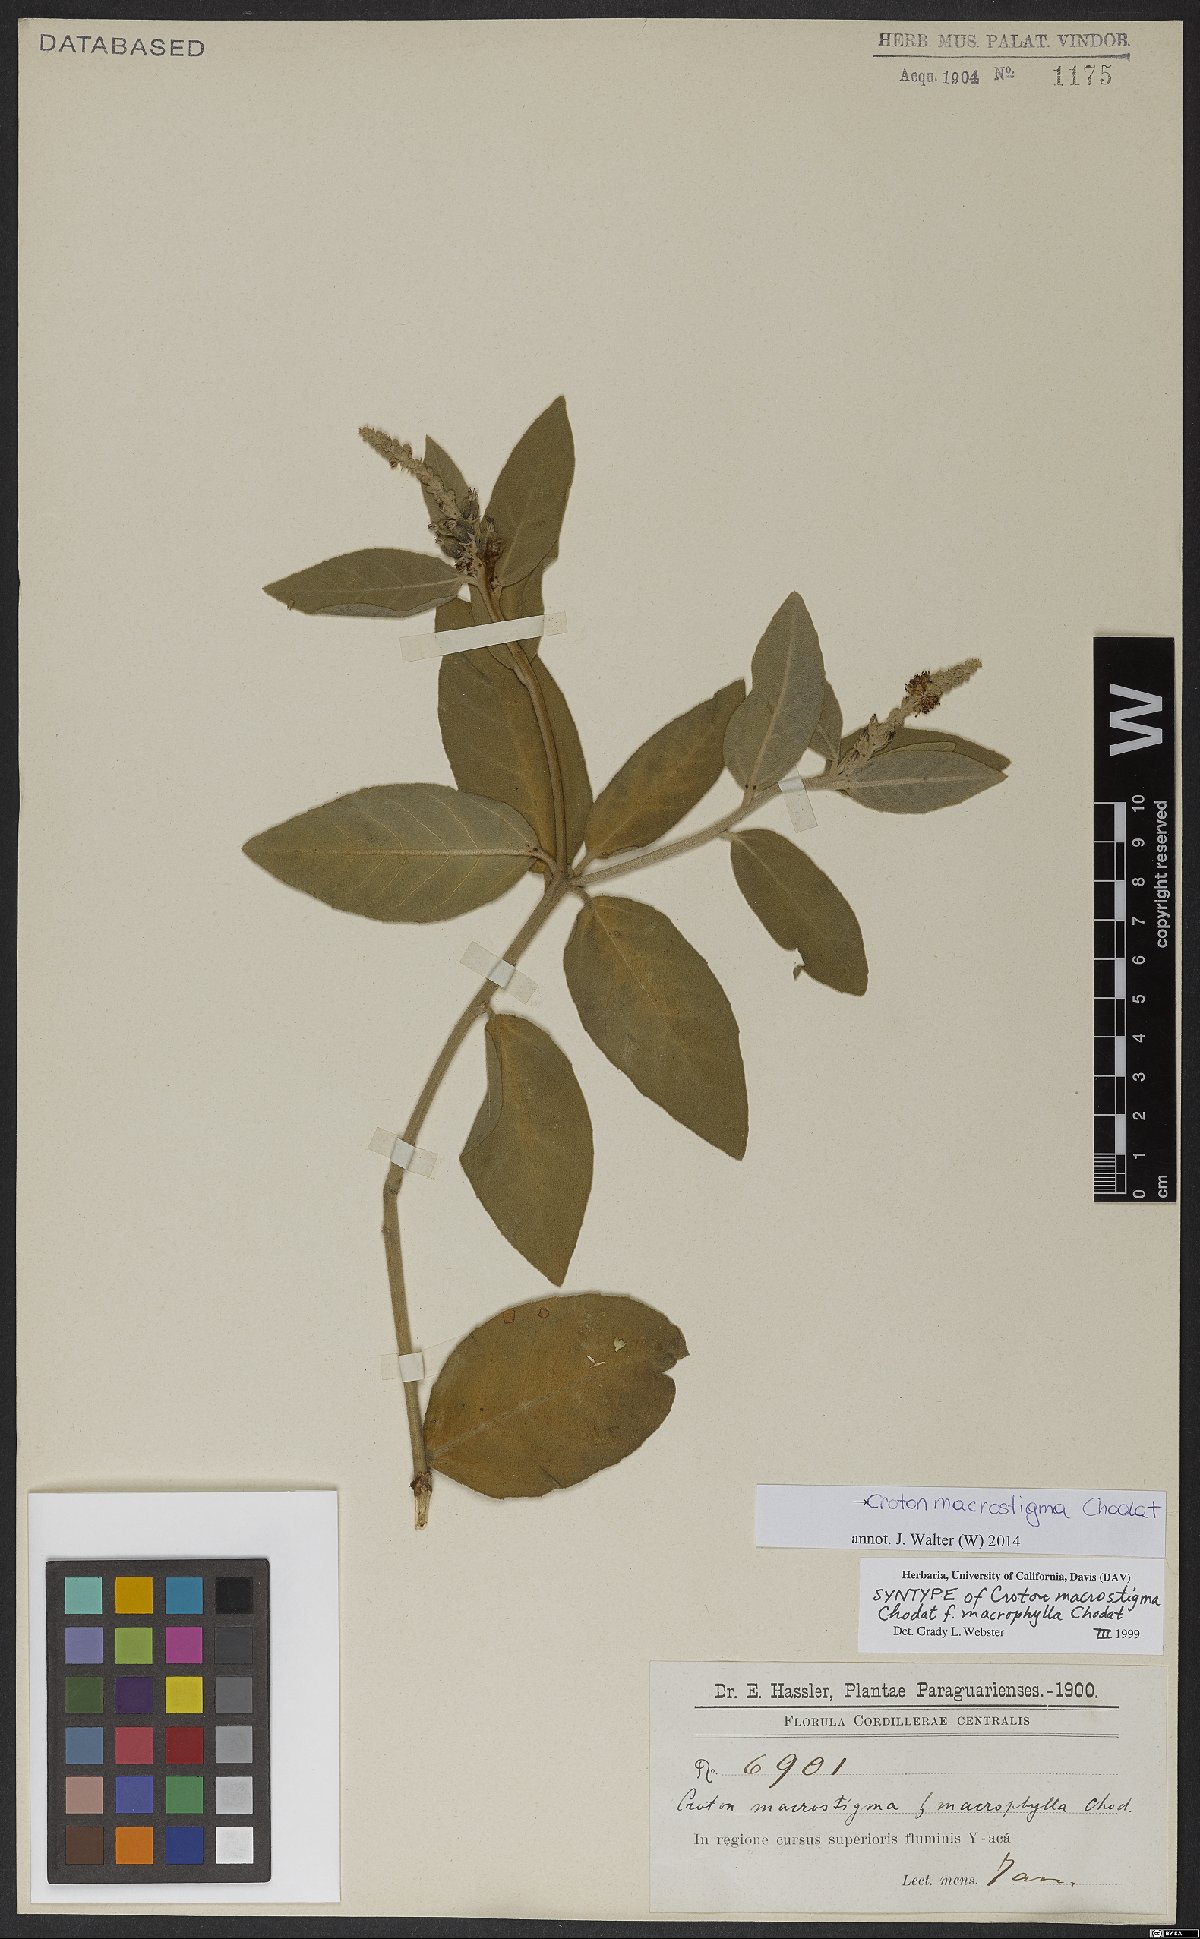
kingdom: Plantae
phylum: Tracheophyta
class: Magnoliopsida
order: Malpighiales
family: Euphorbiaceae
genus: Croton
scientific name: Croton macrostigma
